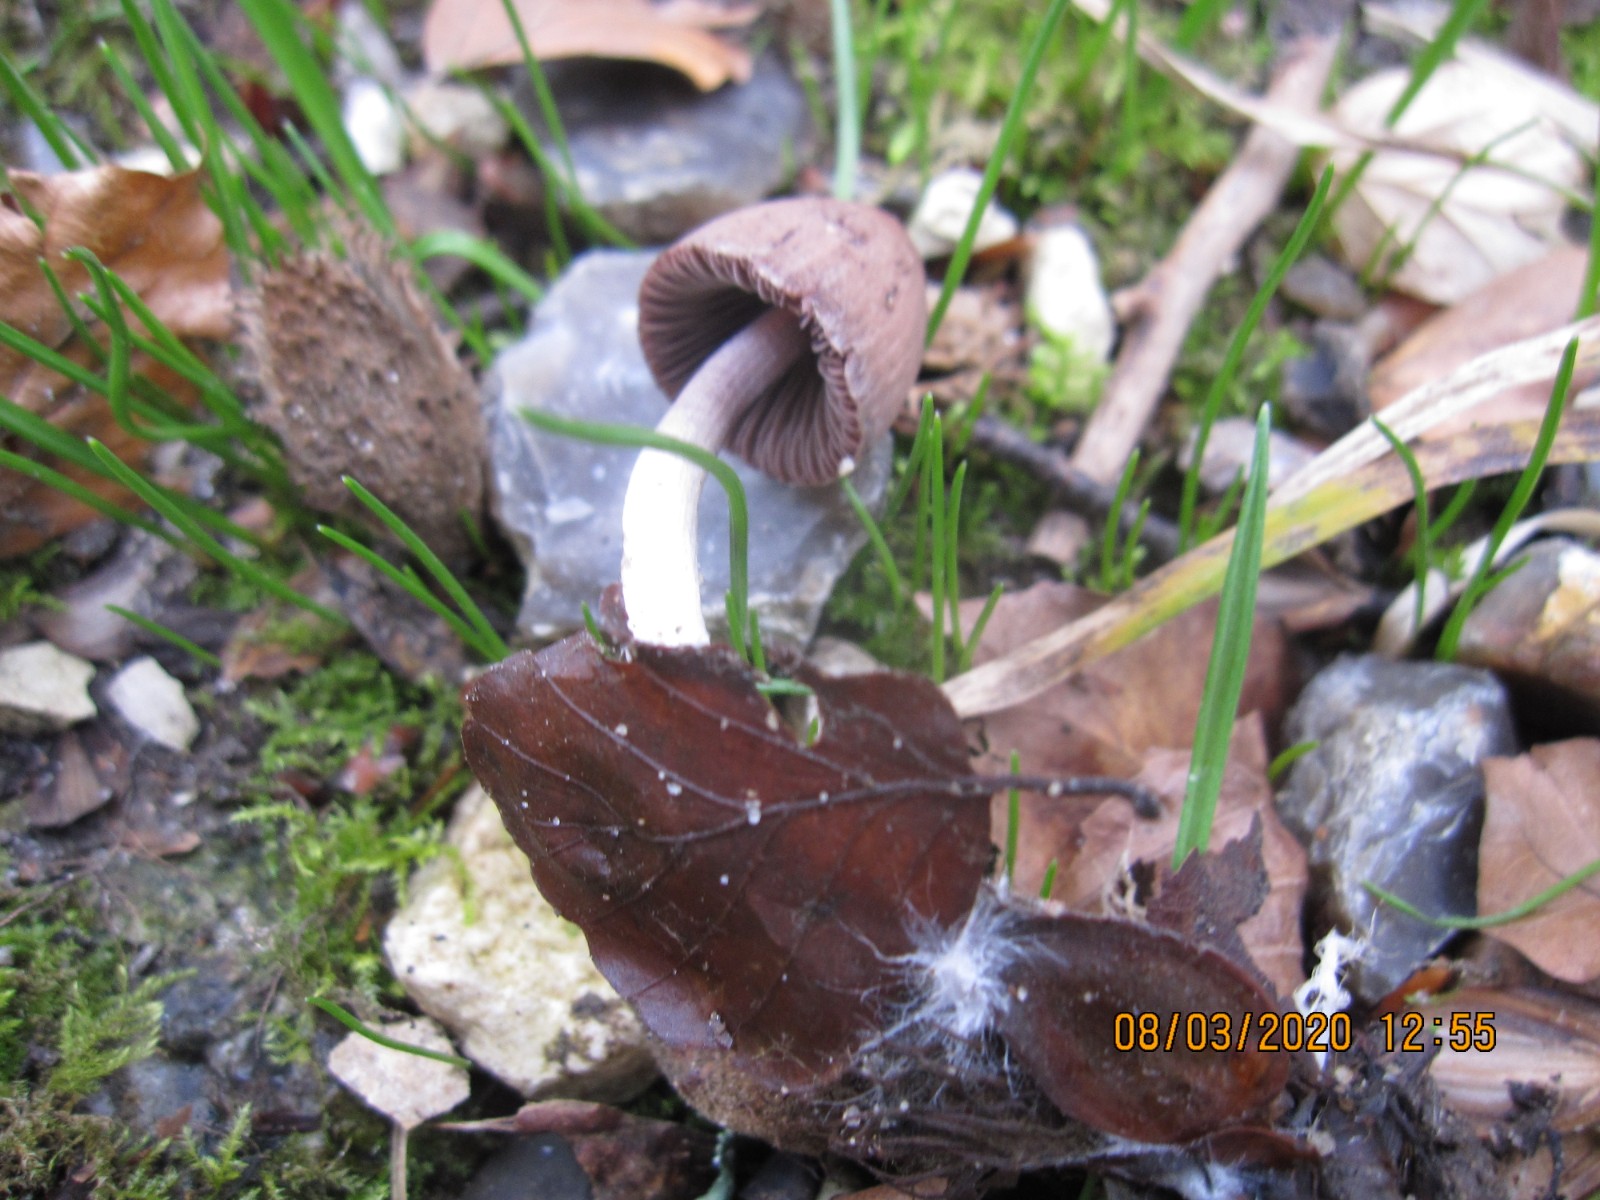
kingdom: Fungi
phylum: Basidiomycota
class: Agaricomycetes
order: Agaricales
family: Psathyrellaceae
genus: Psathyrella
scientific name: Psathyrella bipellis
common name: vinrød mørkhat
